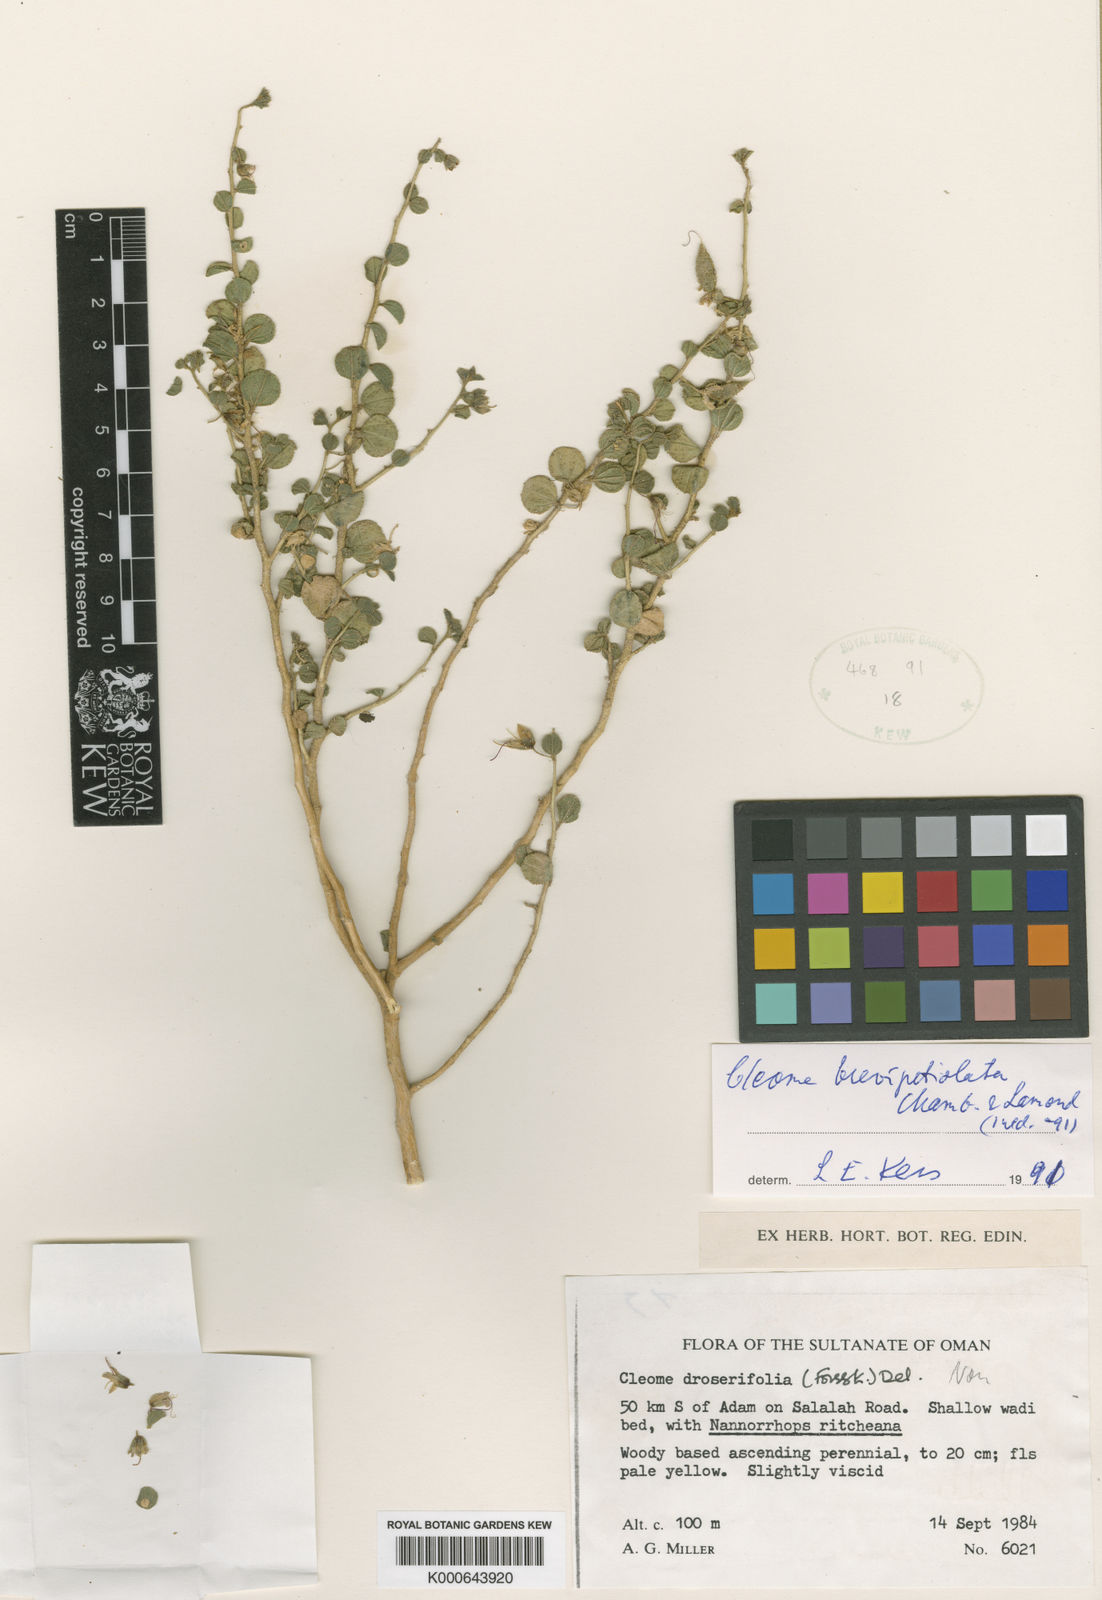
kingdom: Plantae
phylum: Tracheophyta
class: Magnoliopsida
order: Brassicales
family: Cleomaceae
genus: Rorida
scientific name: Rorida brevipetiolata
